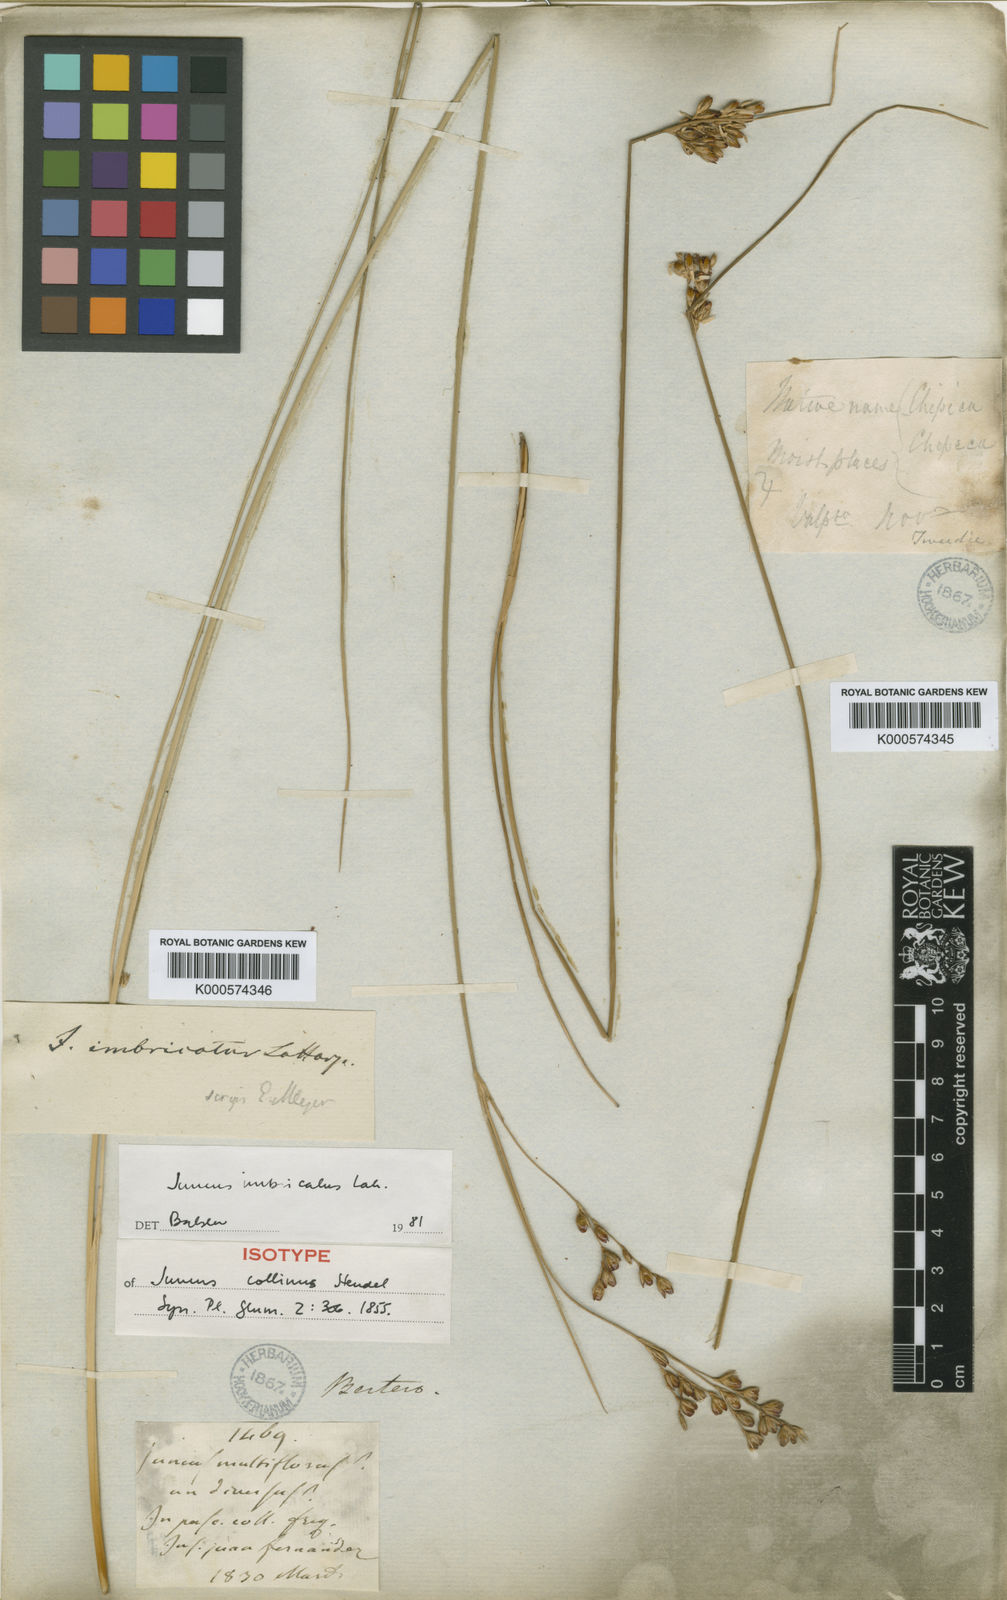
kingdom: Plantae
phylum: Tracheophyta
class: Liliopsida
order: Poales
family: Juncaceae
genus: Juncus
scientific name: Juncus imbricatus
